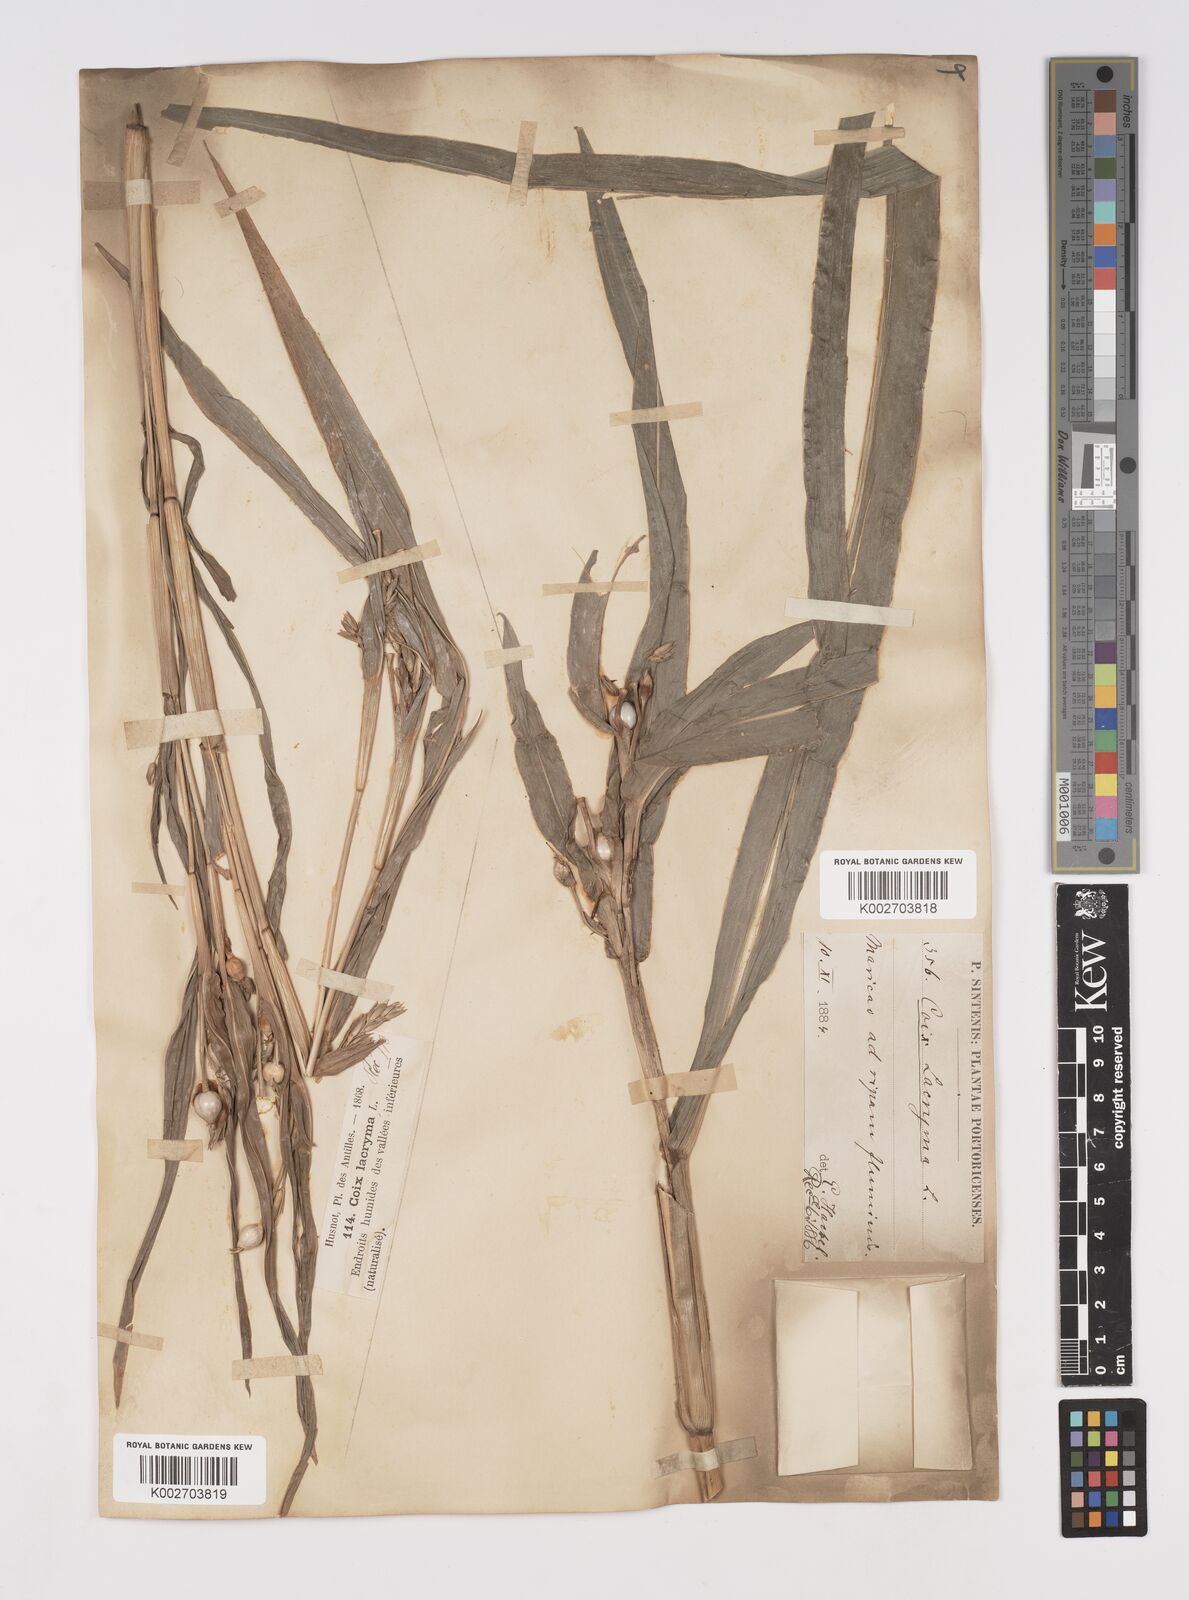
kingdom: Plantae
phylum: Tracheophyta
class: Liliopsida
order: Poales
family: Poaceae
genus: Coix
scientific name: Coix lacryma-jobi
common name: Job's tears
